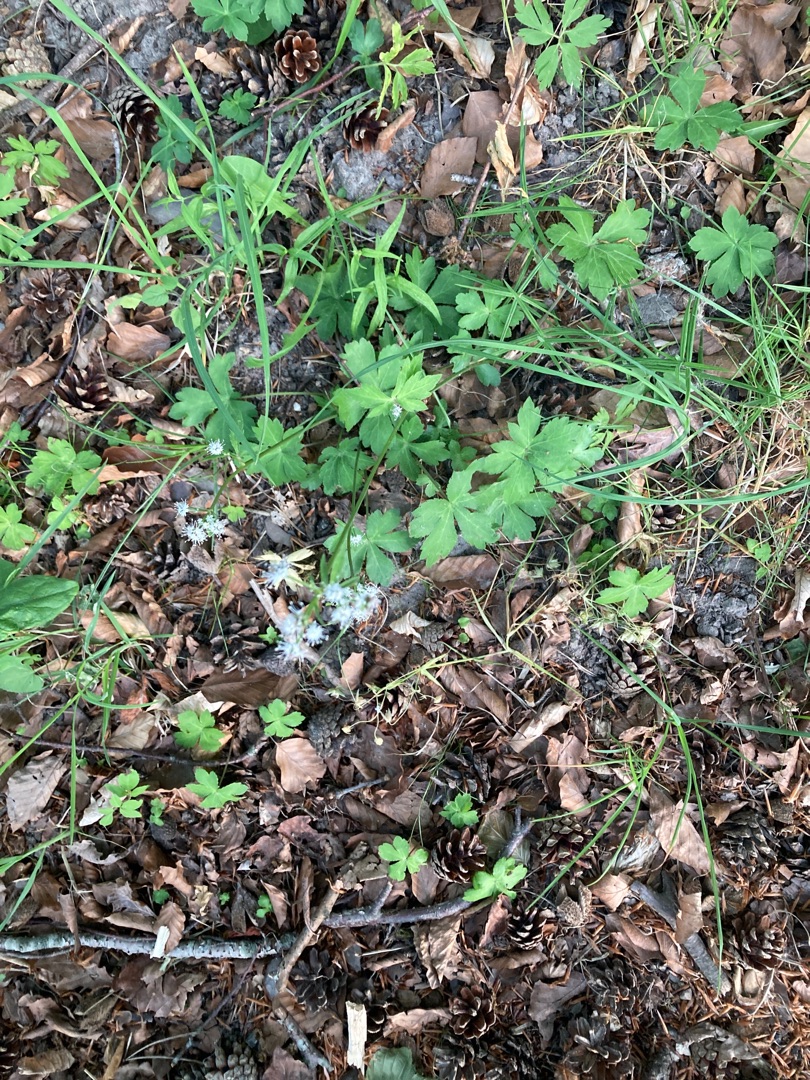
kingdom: Plantae
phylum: Tracheophyta
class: Magnoliopsida
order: Apiales
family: Apiaceae
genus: Sanicula
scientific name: Sanicula europaea
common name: Sanikel
